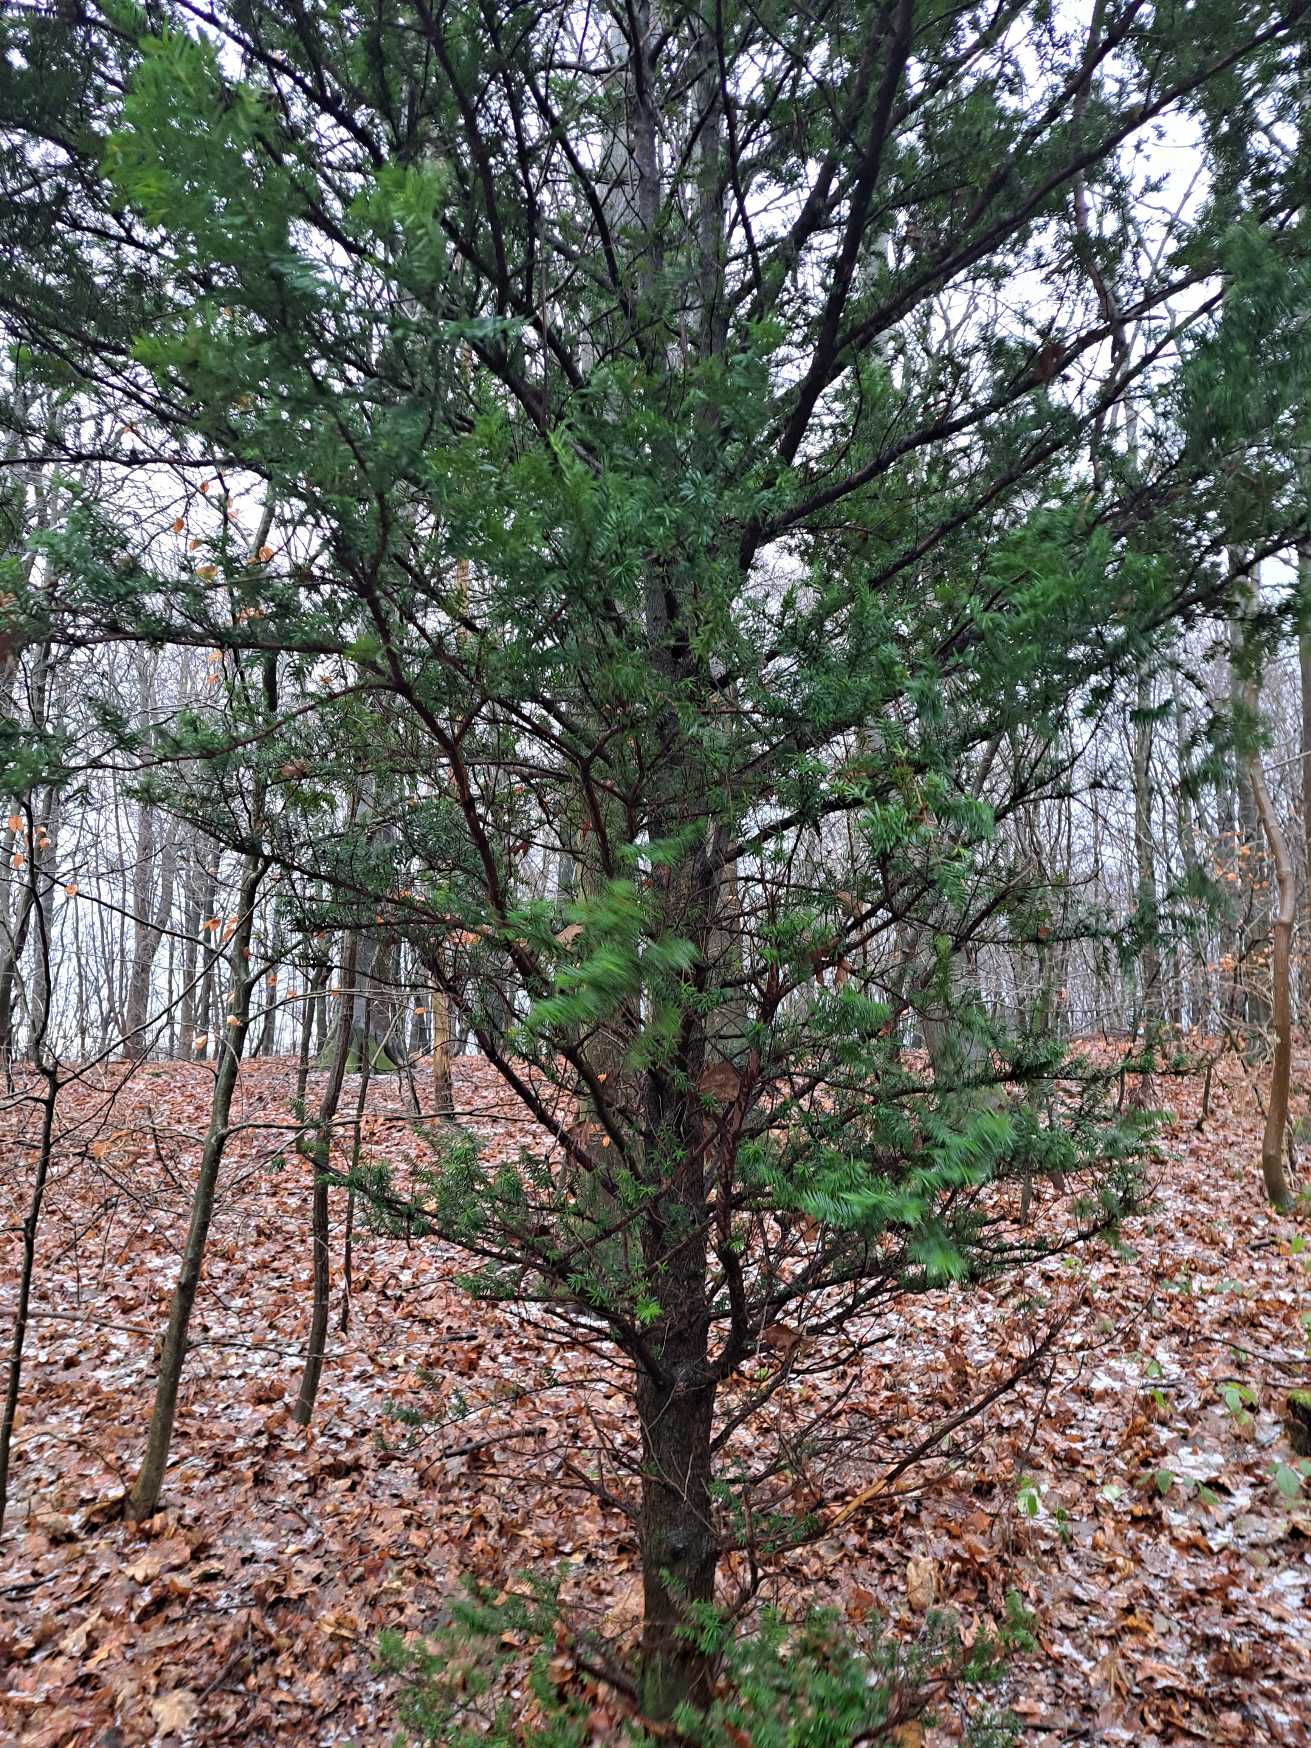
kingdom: Plantae
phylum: Tracheophyta
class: Pinopsida
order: Pinales
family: Taxaceae
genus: Taxus
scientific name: Taxus baccata
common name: Almindelig taks
